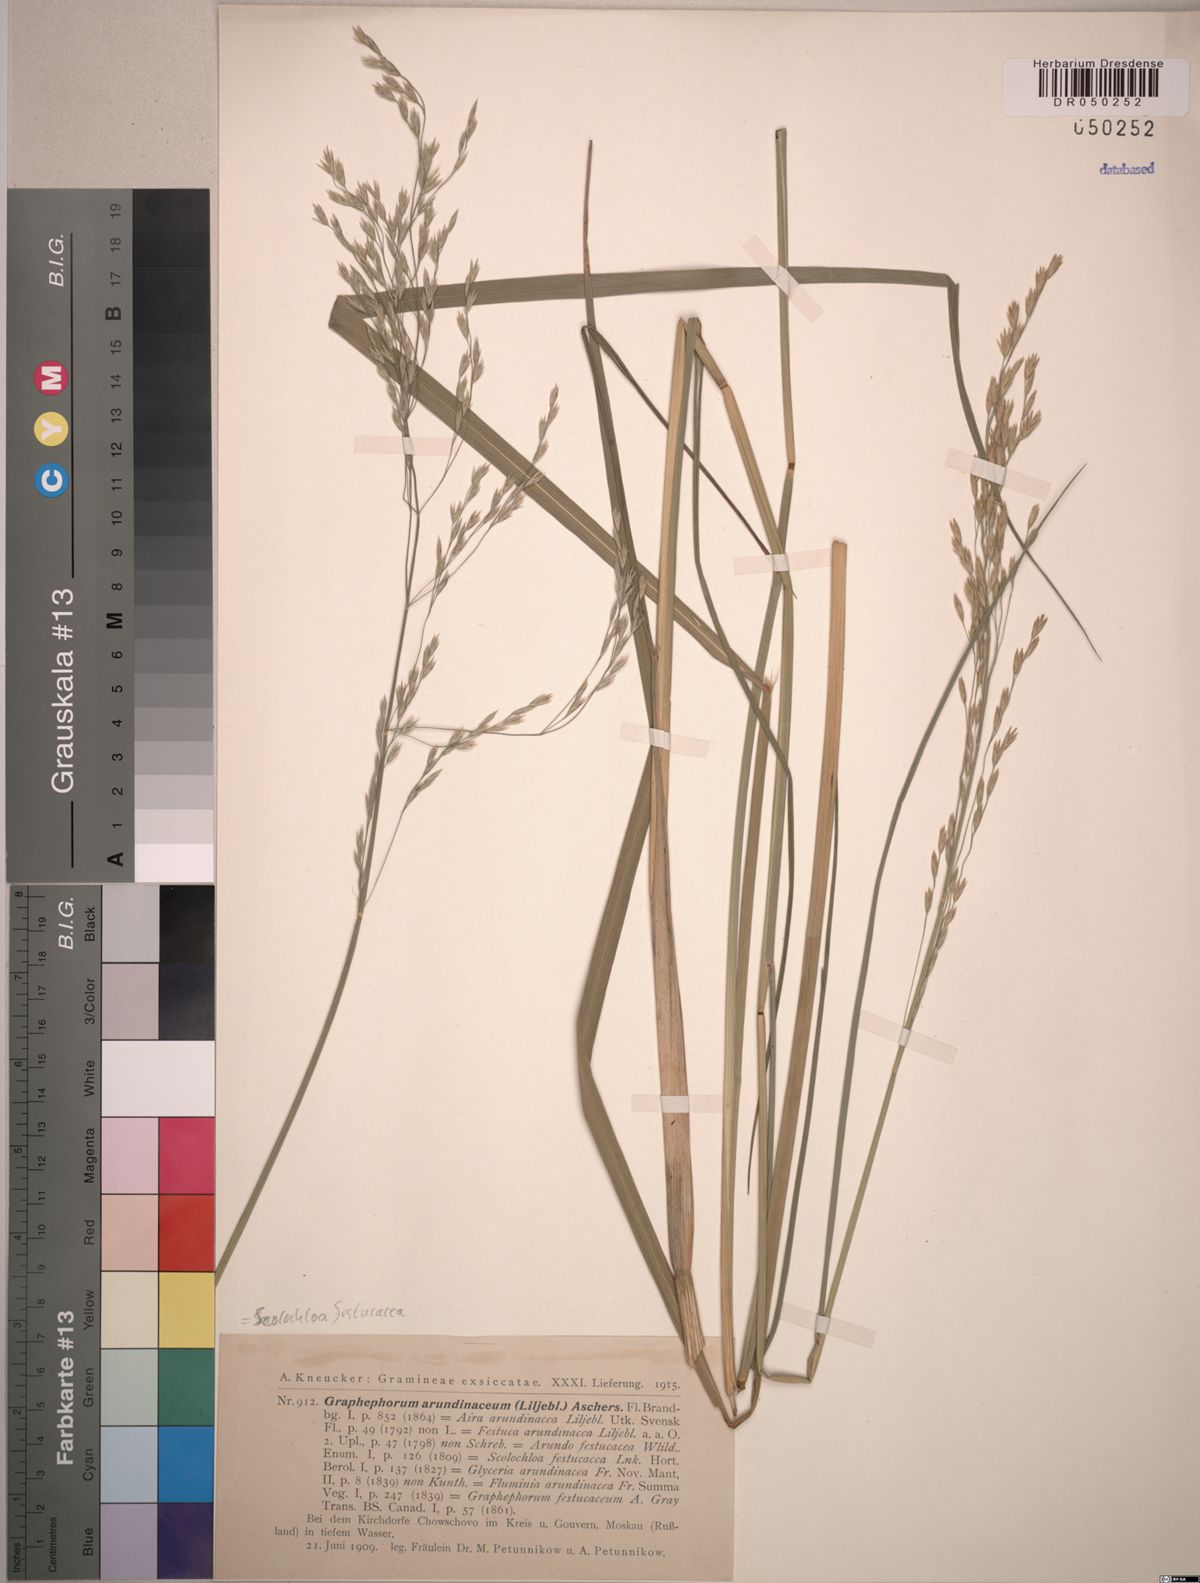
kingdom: Plantae
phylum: Tracheophyta
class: Liliopsida
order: Poales
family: Poaceae
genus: Scolochloa
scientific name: Scolochloa festucacea
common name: Common rivergrass
